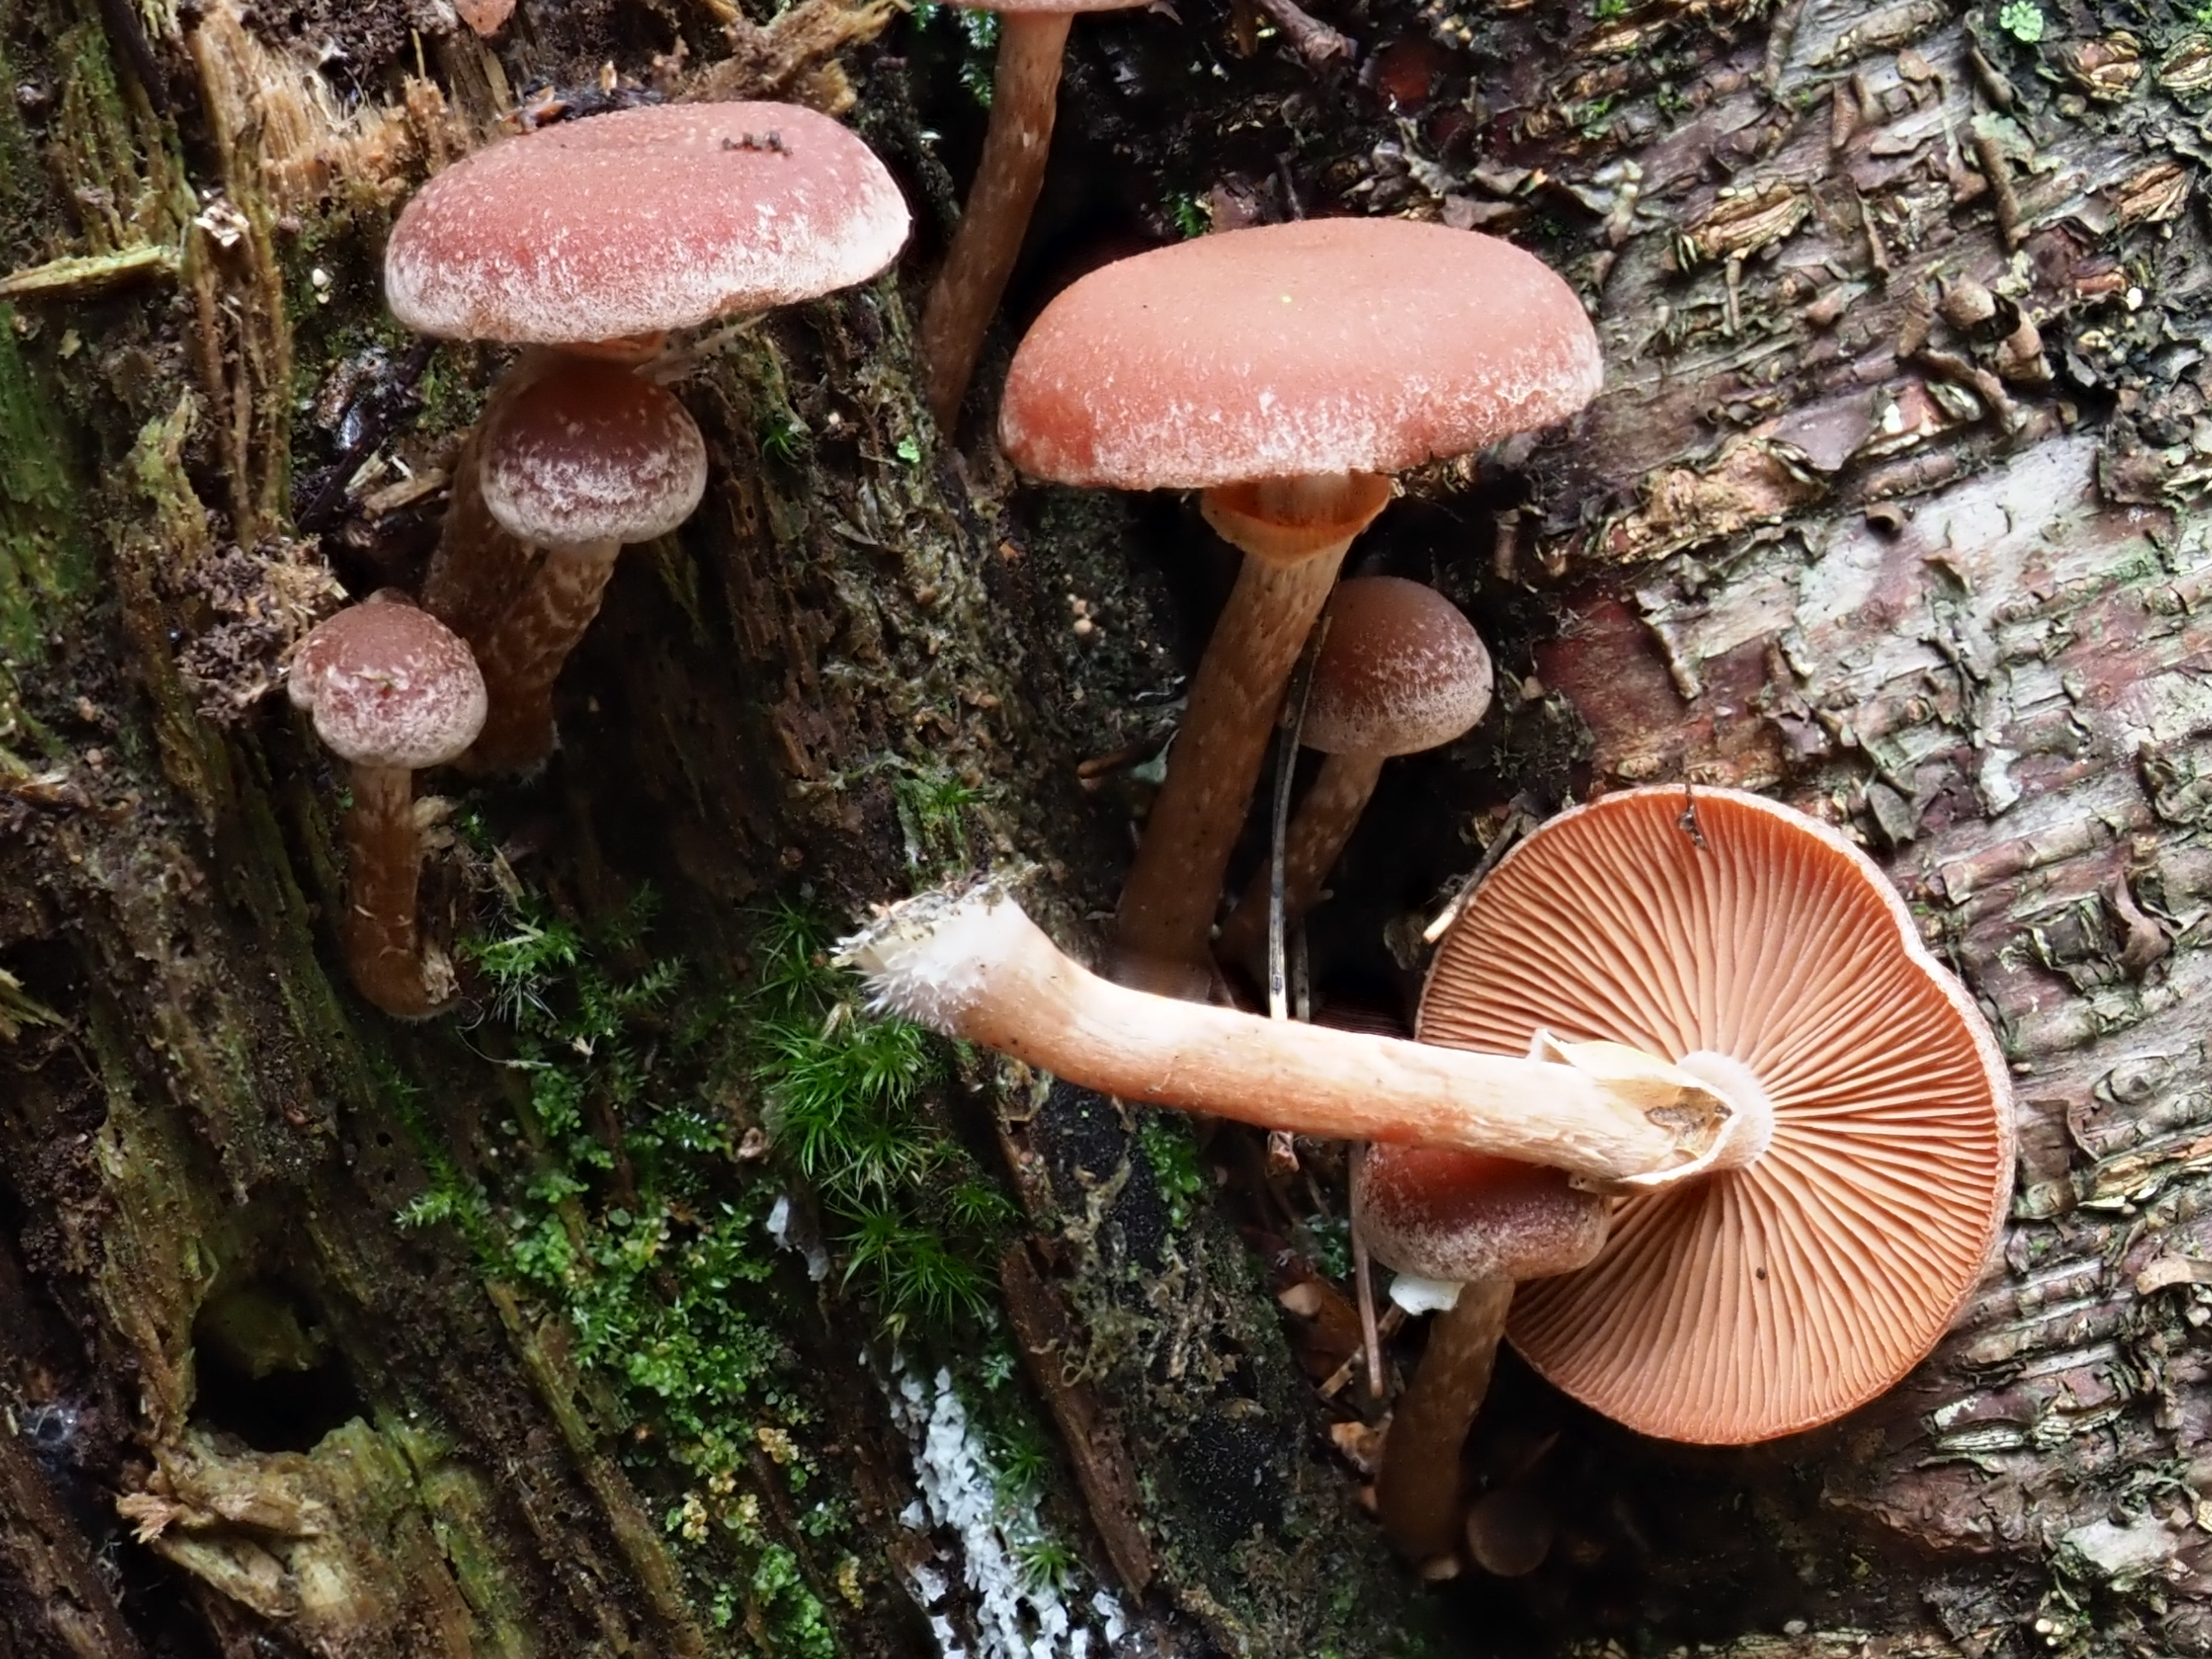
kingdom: Fungi
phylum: Basidiomycota
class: Agaricomycetes
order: Agaricales
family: Tubariaceae
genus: Tubaria
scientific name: Tubaria confragosa
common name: Ringed twiglet
